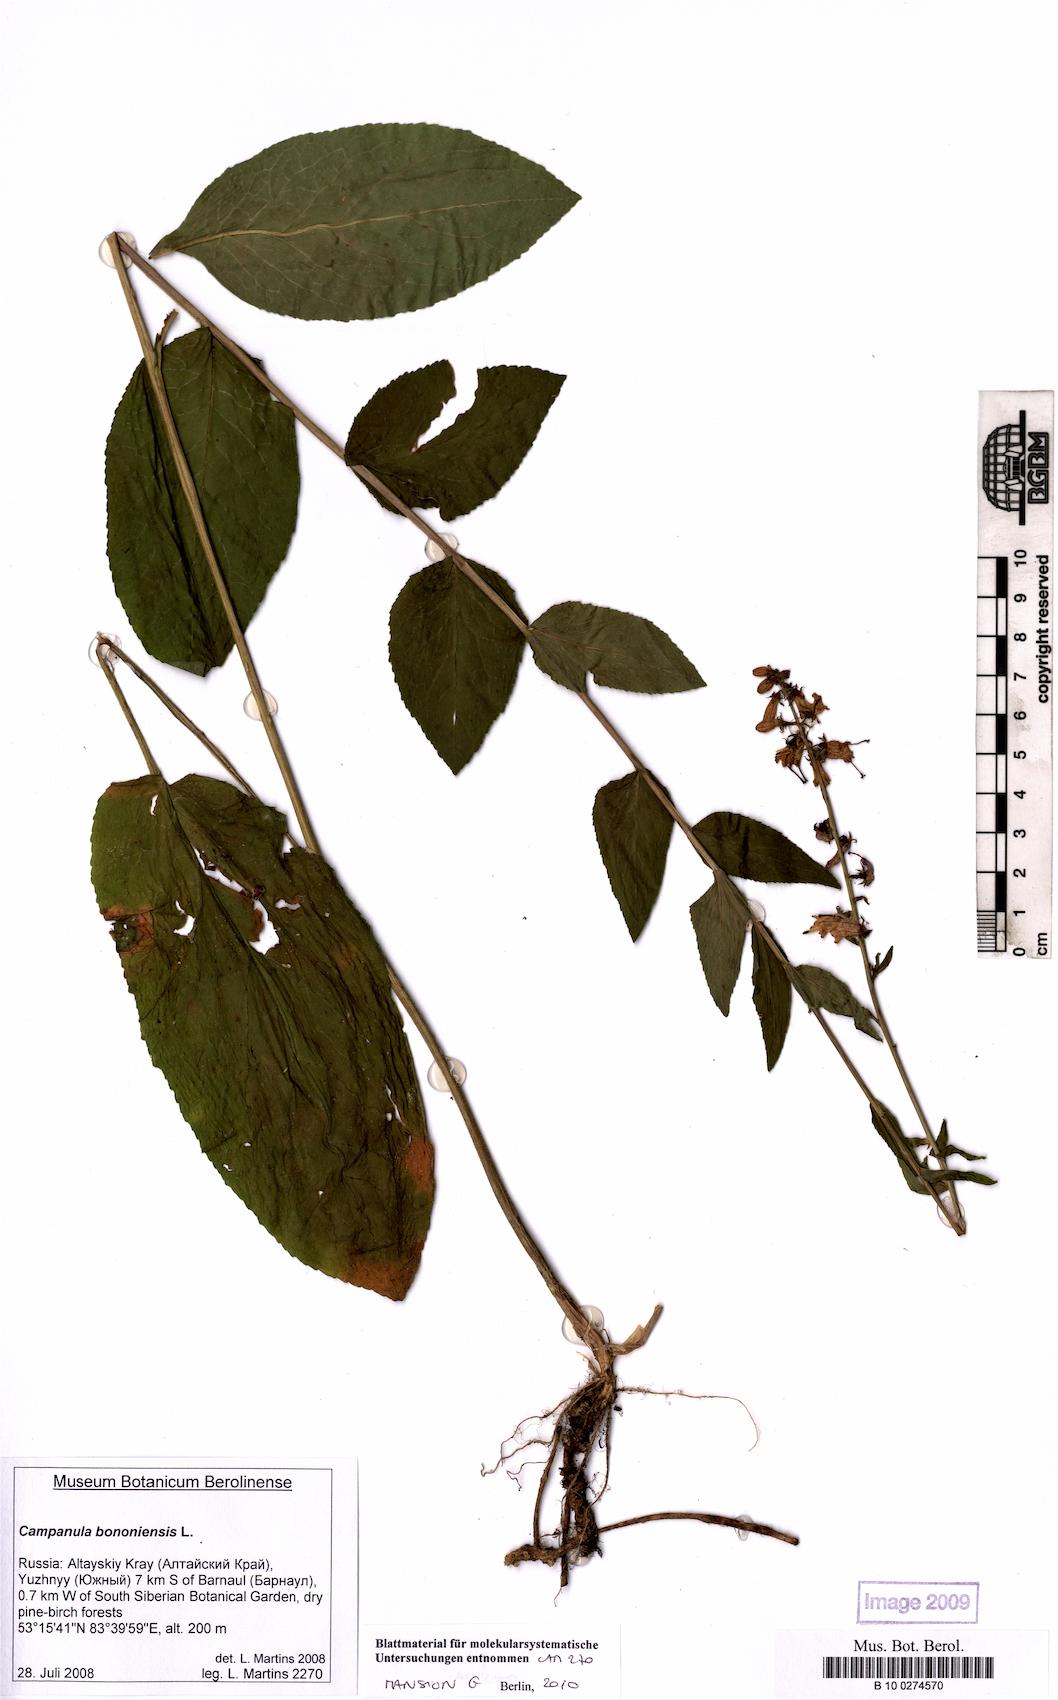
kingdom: Plantae
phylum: Tracheophyta
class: Magnoliopsida
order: Asterales
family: Campanulaceae
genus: Campanula
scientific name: Campanula bononiensis
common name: Pale bellflower
